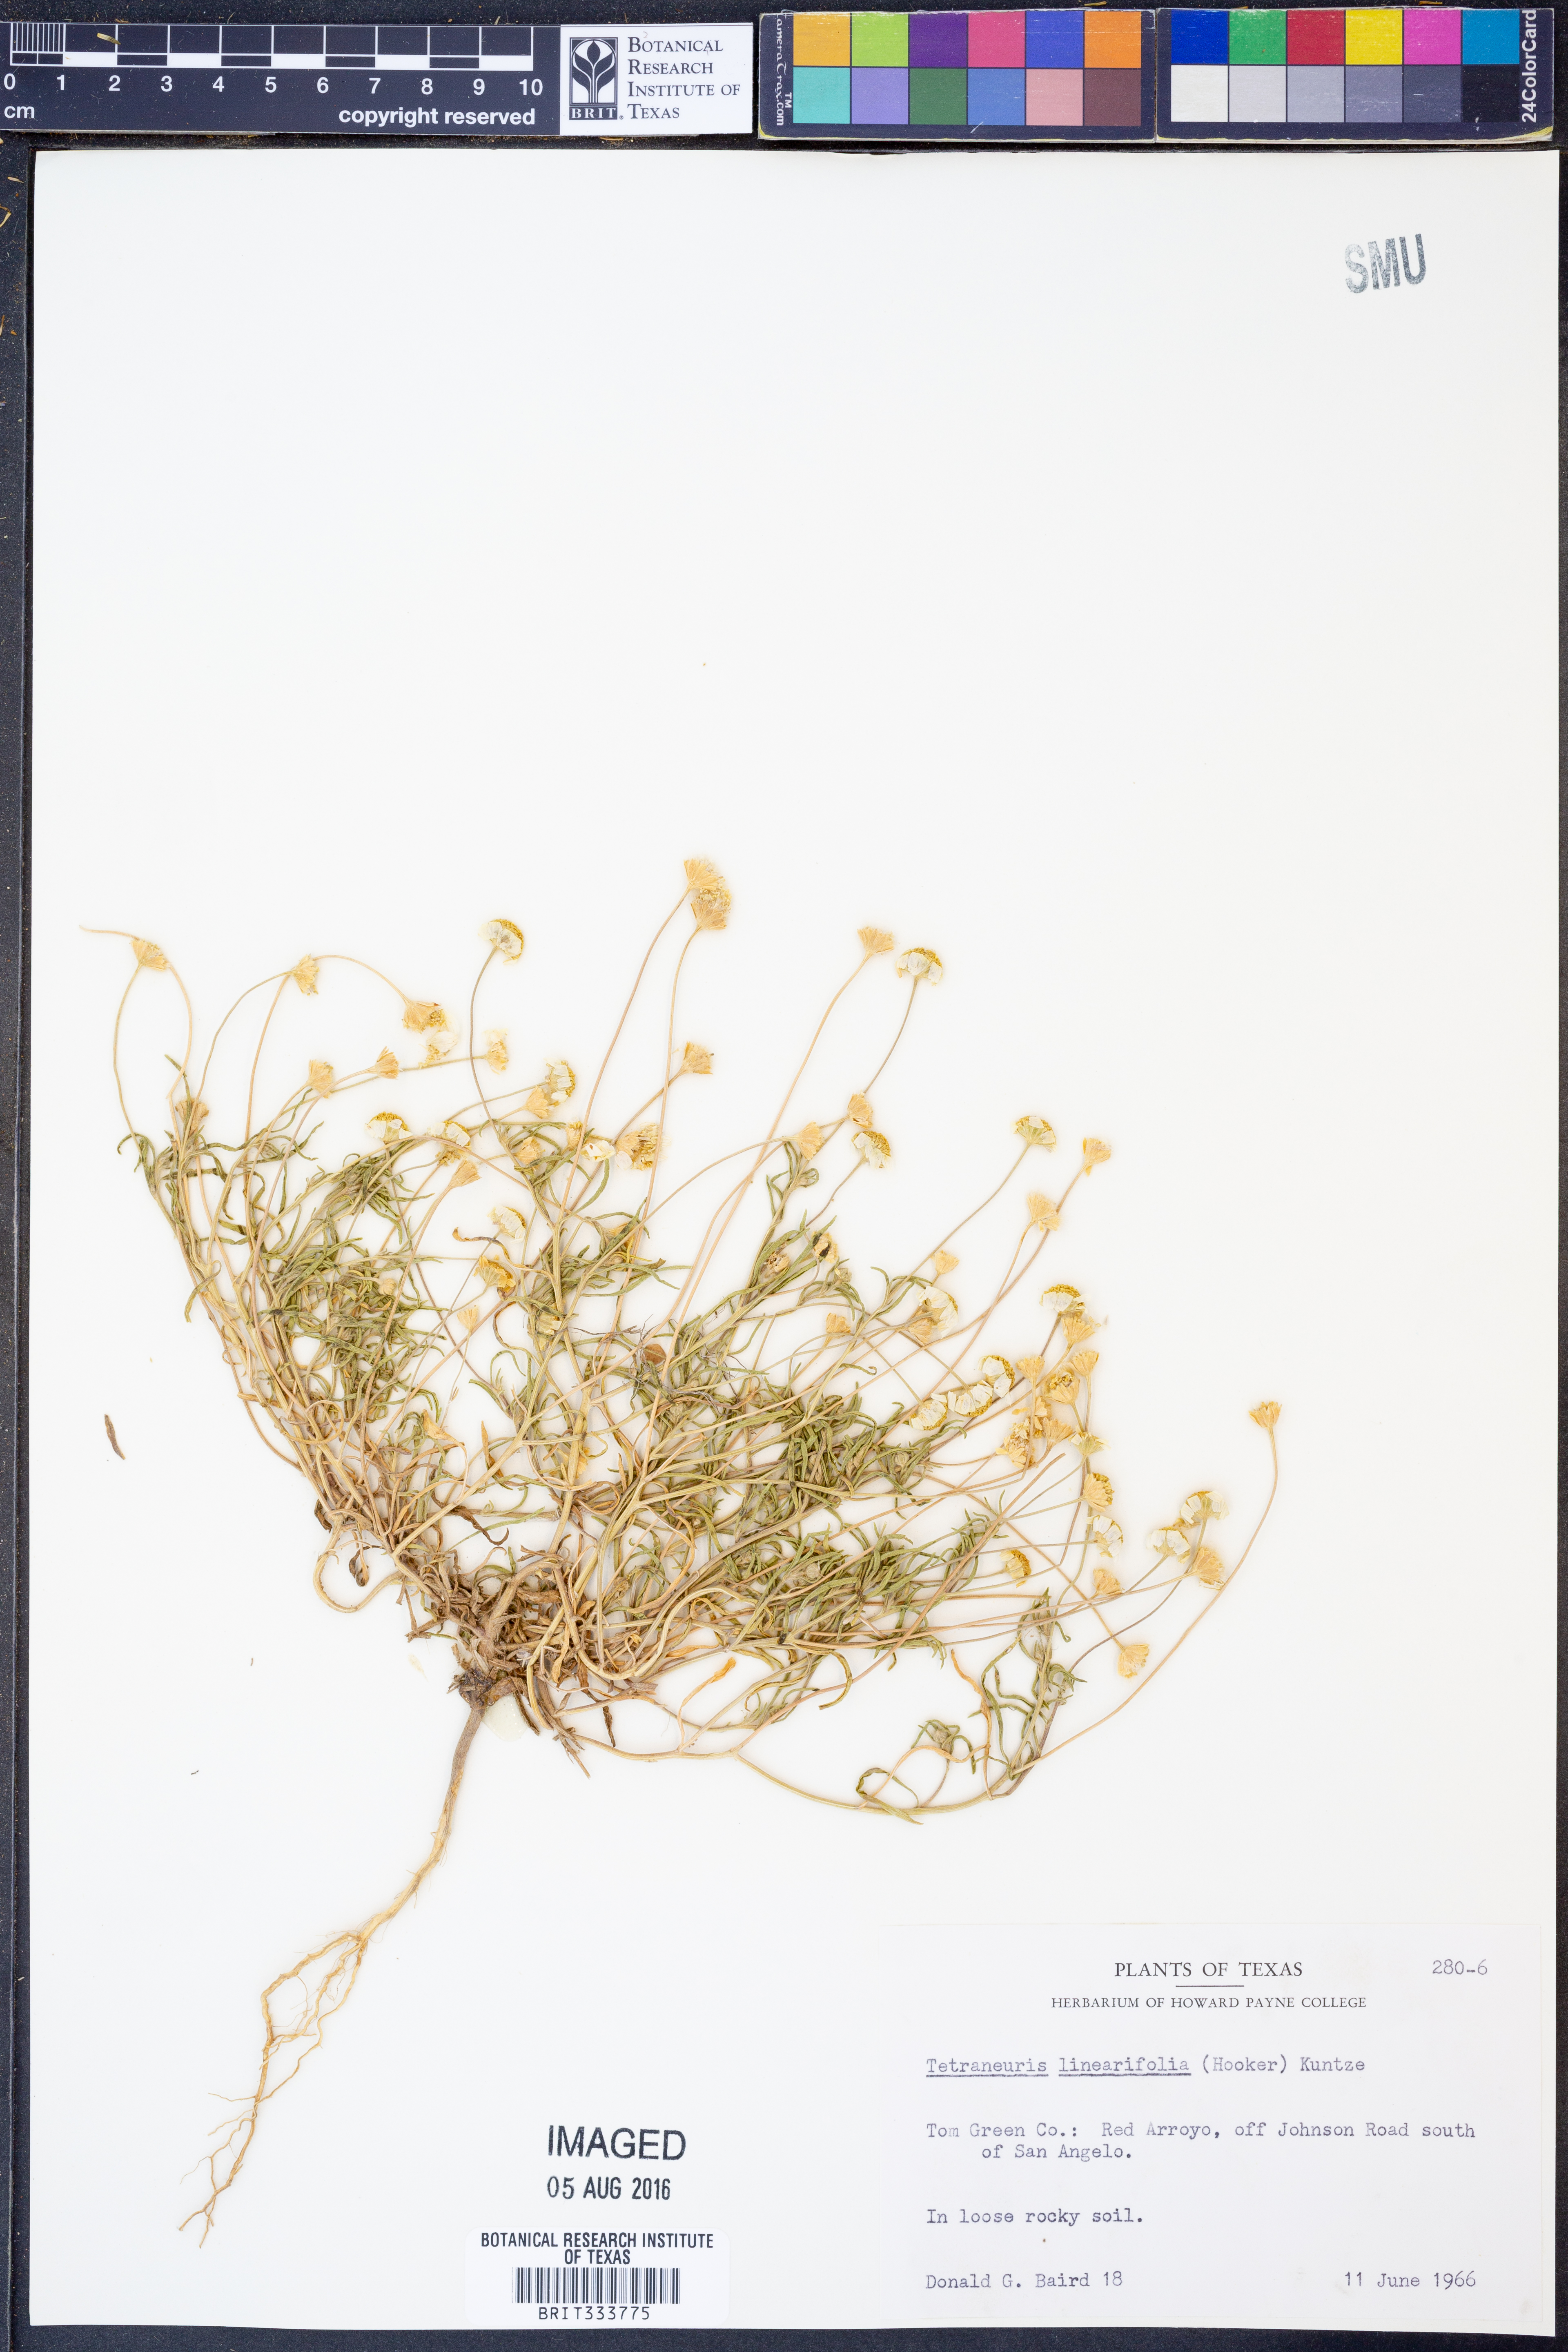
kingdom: Plantae
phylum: Tracheophyta
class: Magnoliopsida
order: Asterales
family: Asteraceae
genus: Tetraneuris
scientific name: Tetraneuris linearifolia
